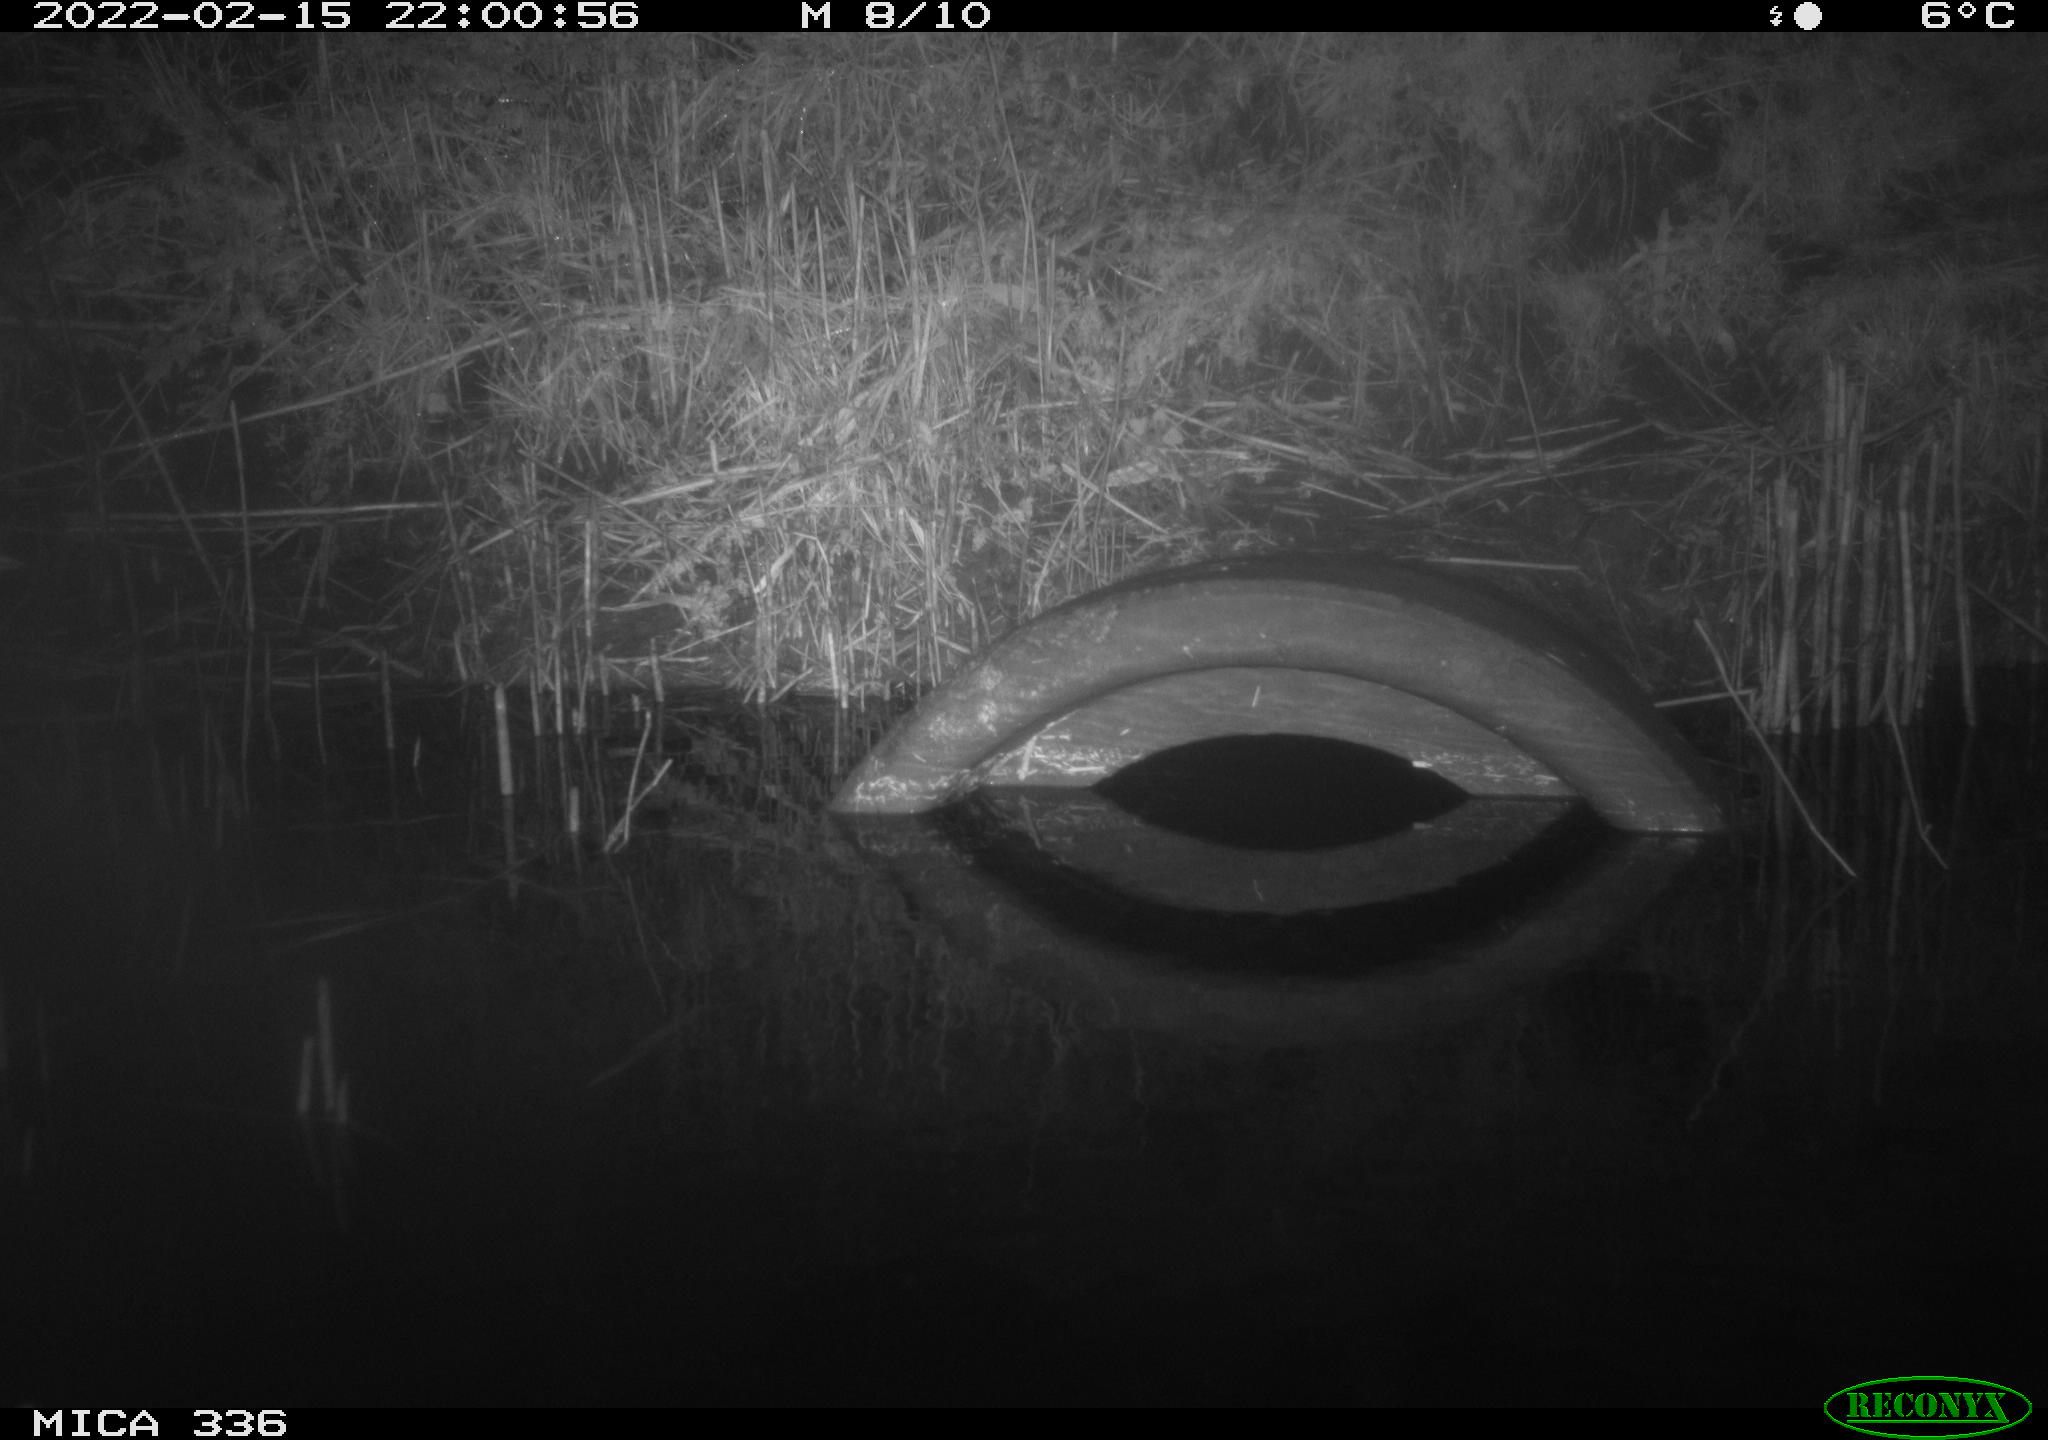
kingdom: Animalia
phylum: Chordata
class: Aves
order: Pelecaniformes
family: Ardeidae
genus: Ardea
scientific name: Ardea cinerea
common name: Grey heron
